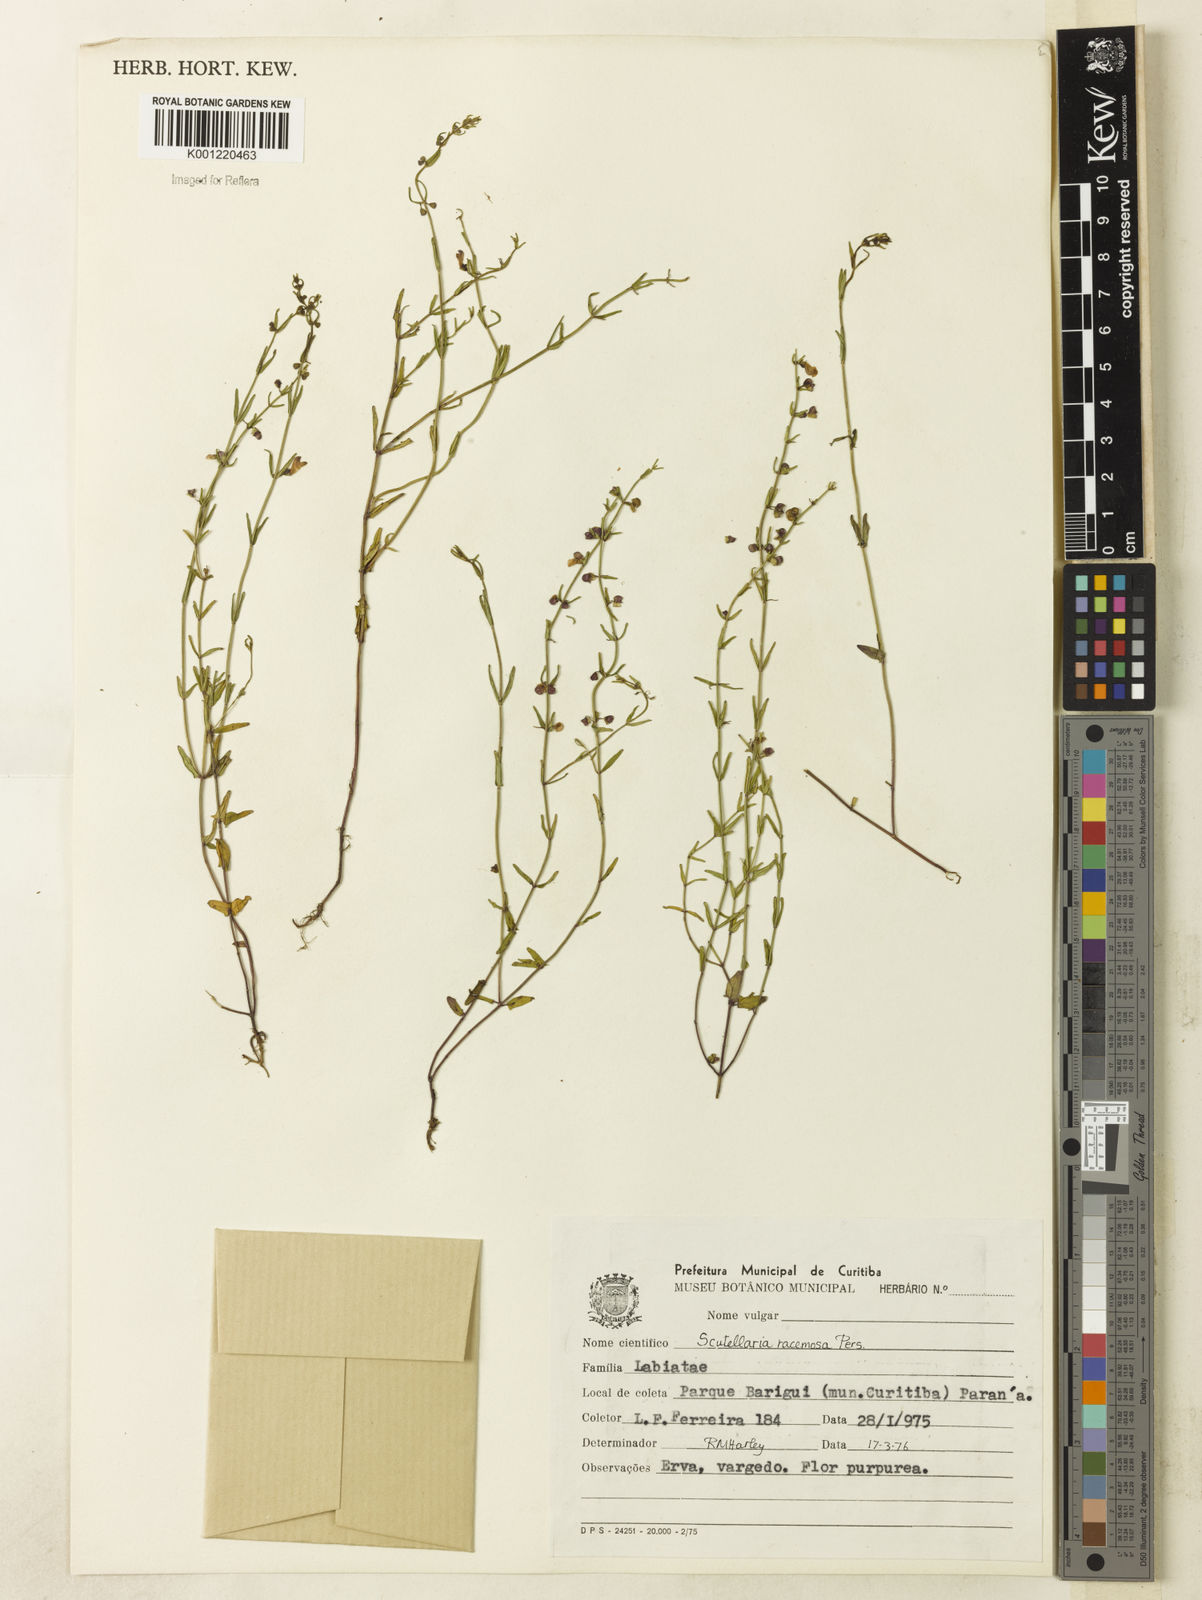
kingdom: Plantae
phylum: Tracheophyta
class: Magnoliopsida
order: Lamiales
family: Lamiaceae
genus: Scutellaria
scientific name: Scutellaria racemosa
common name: South american skullcap
